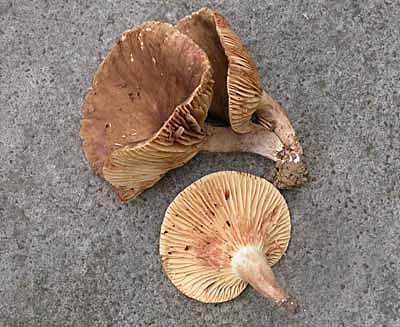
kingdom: Fungi
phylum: Basidiomycota
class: Agaricomycetes
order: Russulales
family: Russulaceae
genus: Lactarius
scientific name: Lactarius romagnesii
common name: fjernbladet mælkehat
